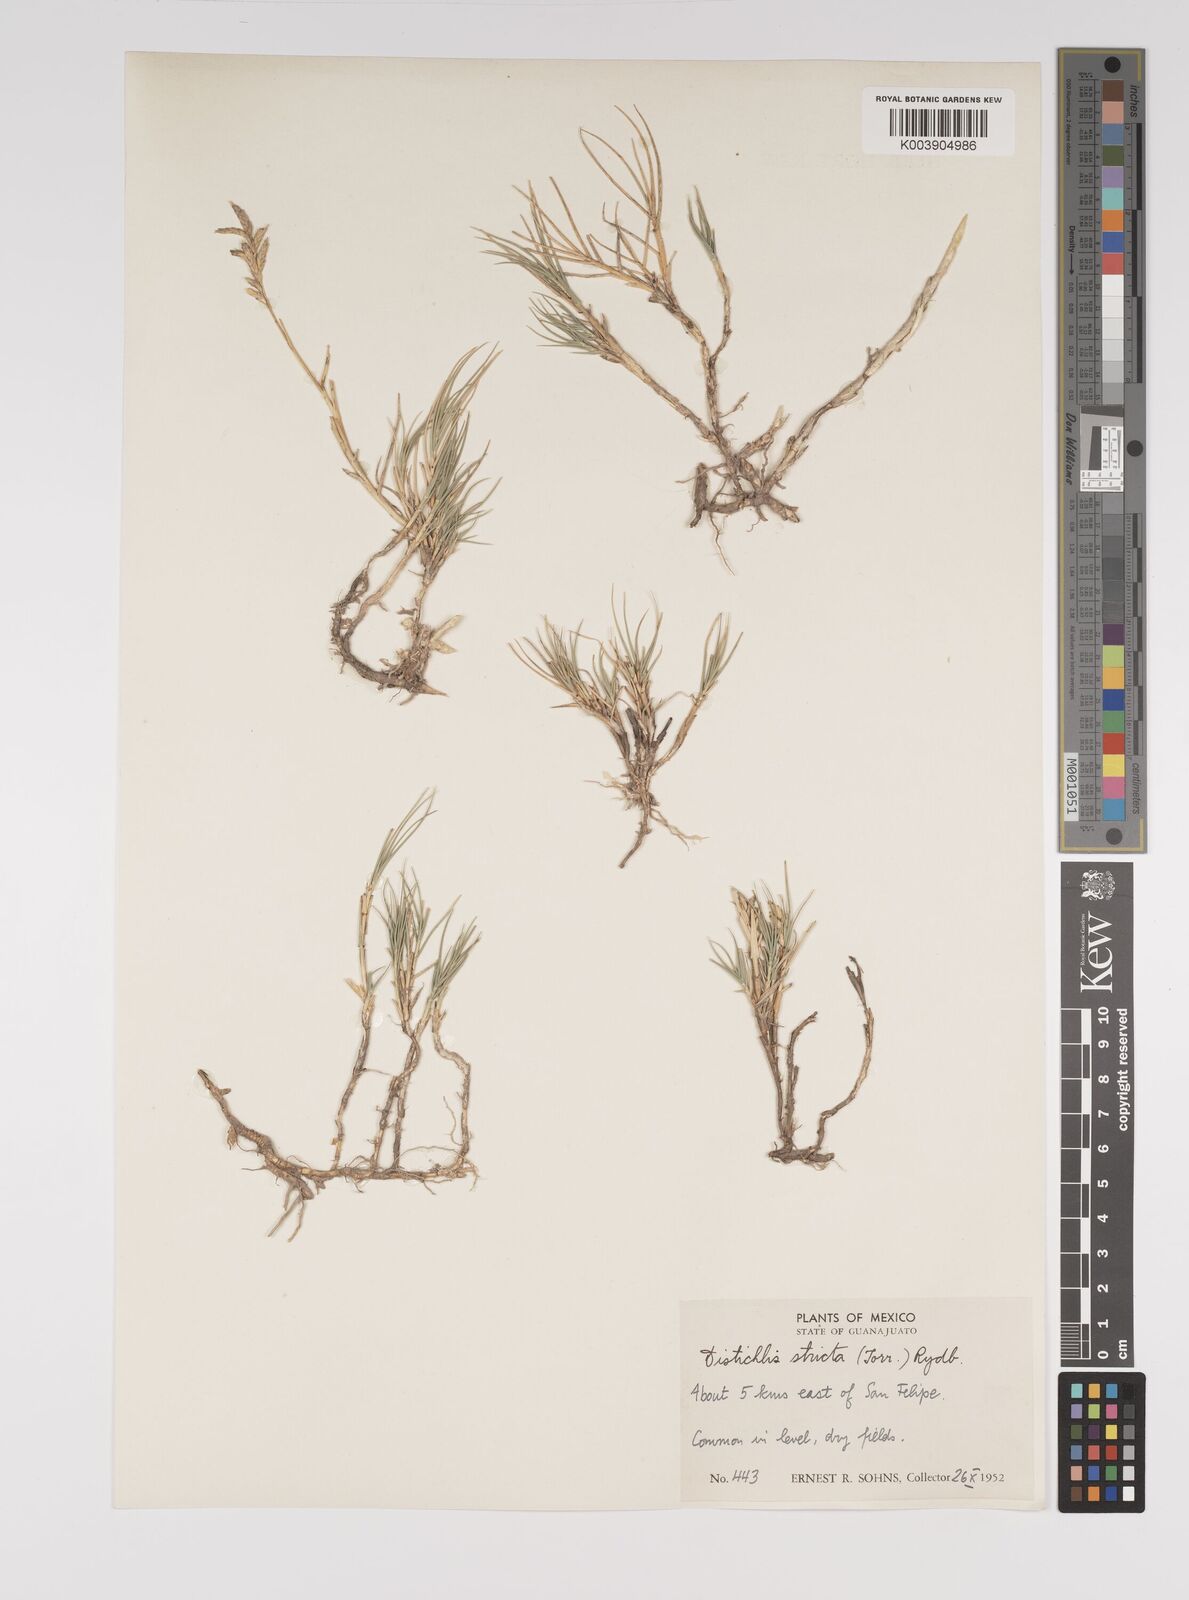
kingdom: Plantae
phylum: Tracheophyta
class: Liliopsida
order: Poales
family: Poaceae
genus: Distichlis
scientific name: Distichlis spicata
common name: Saltgrass
